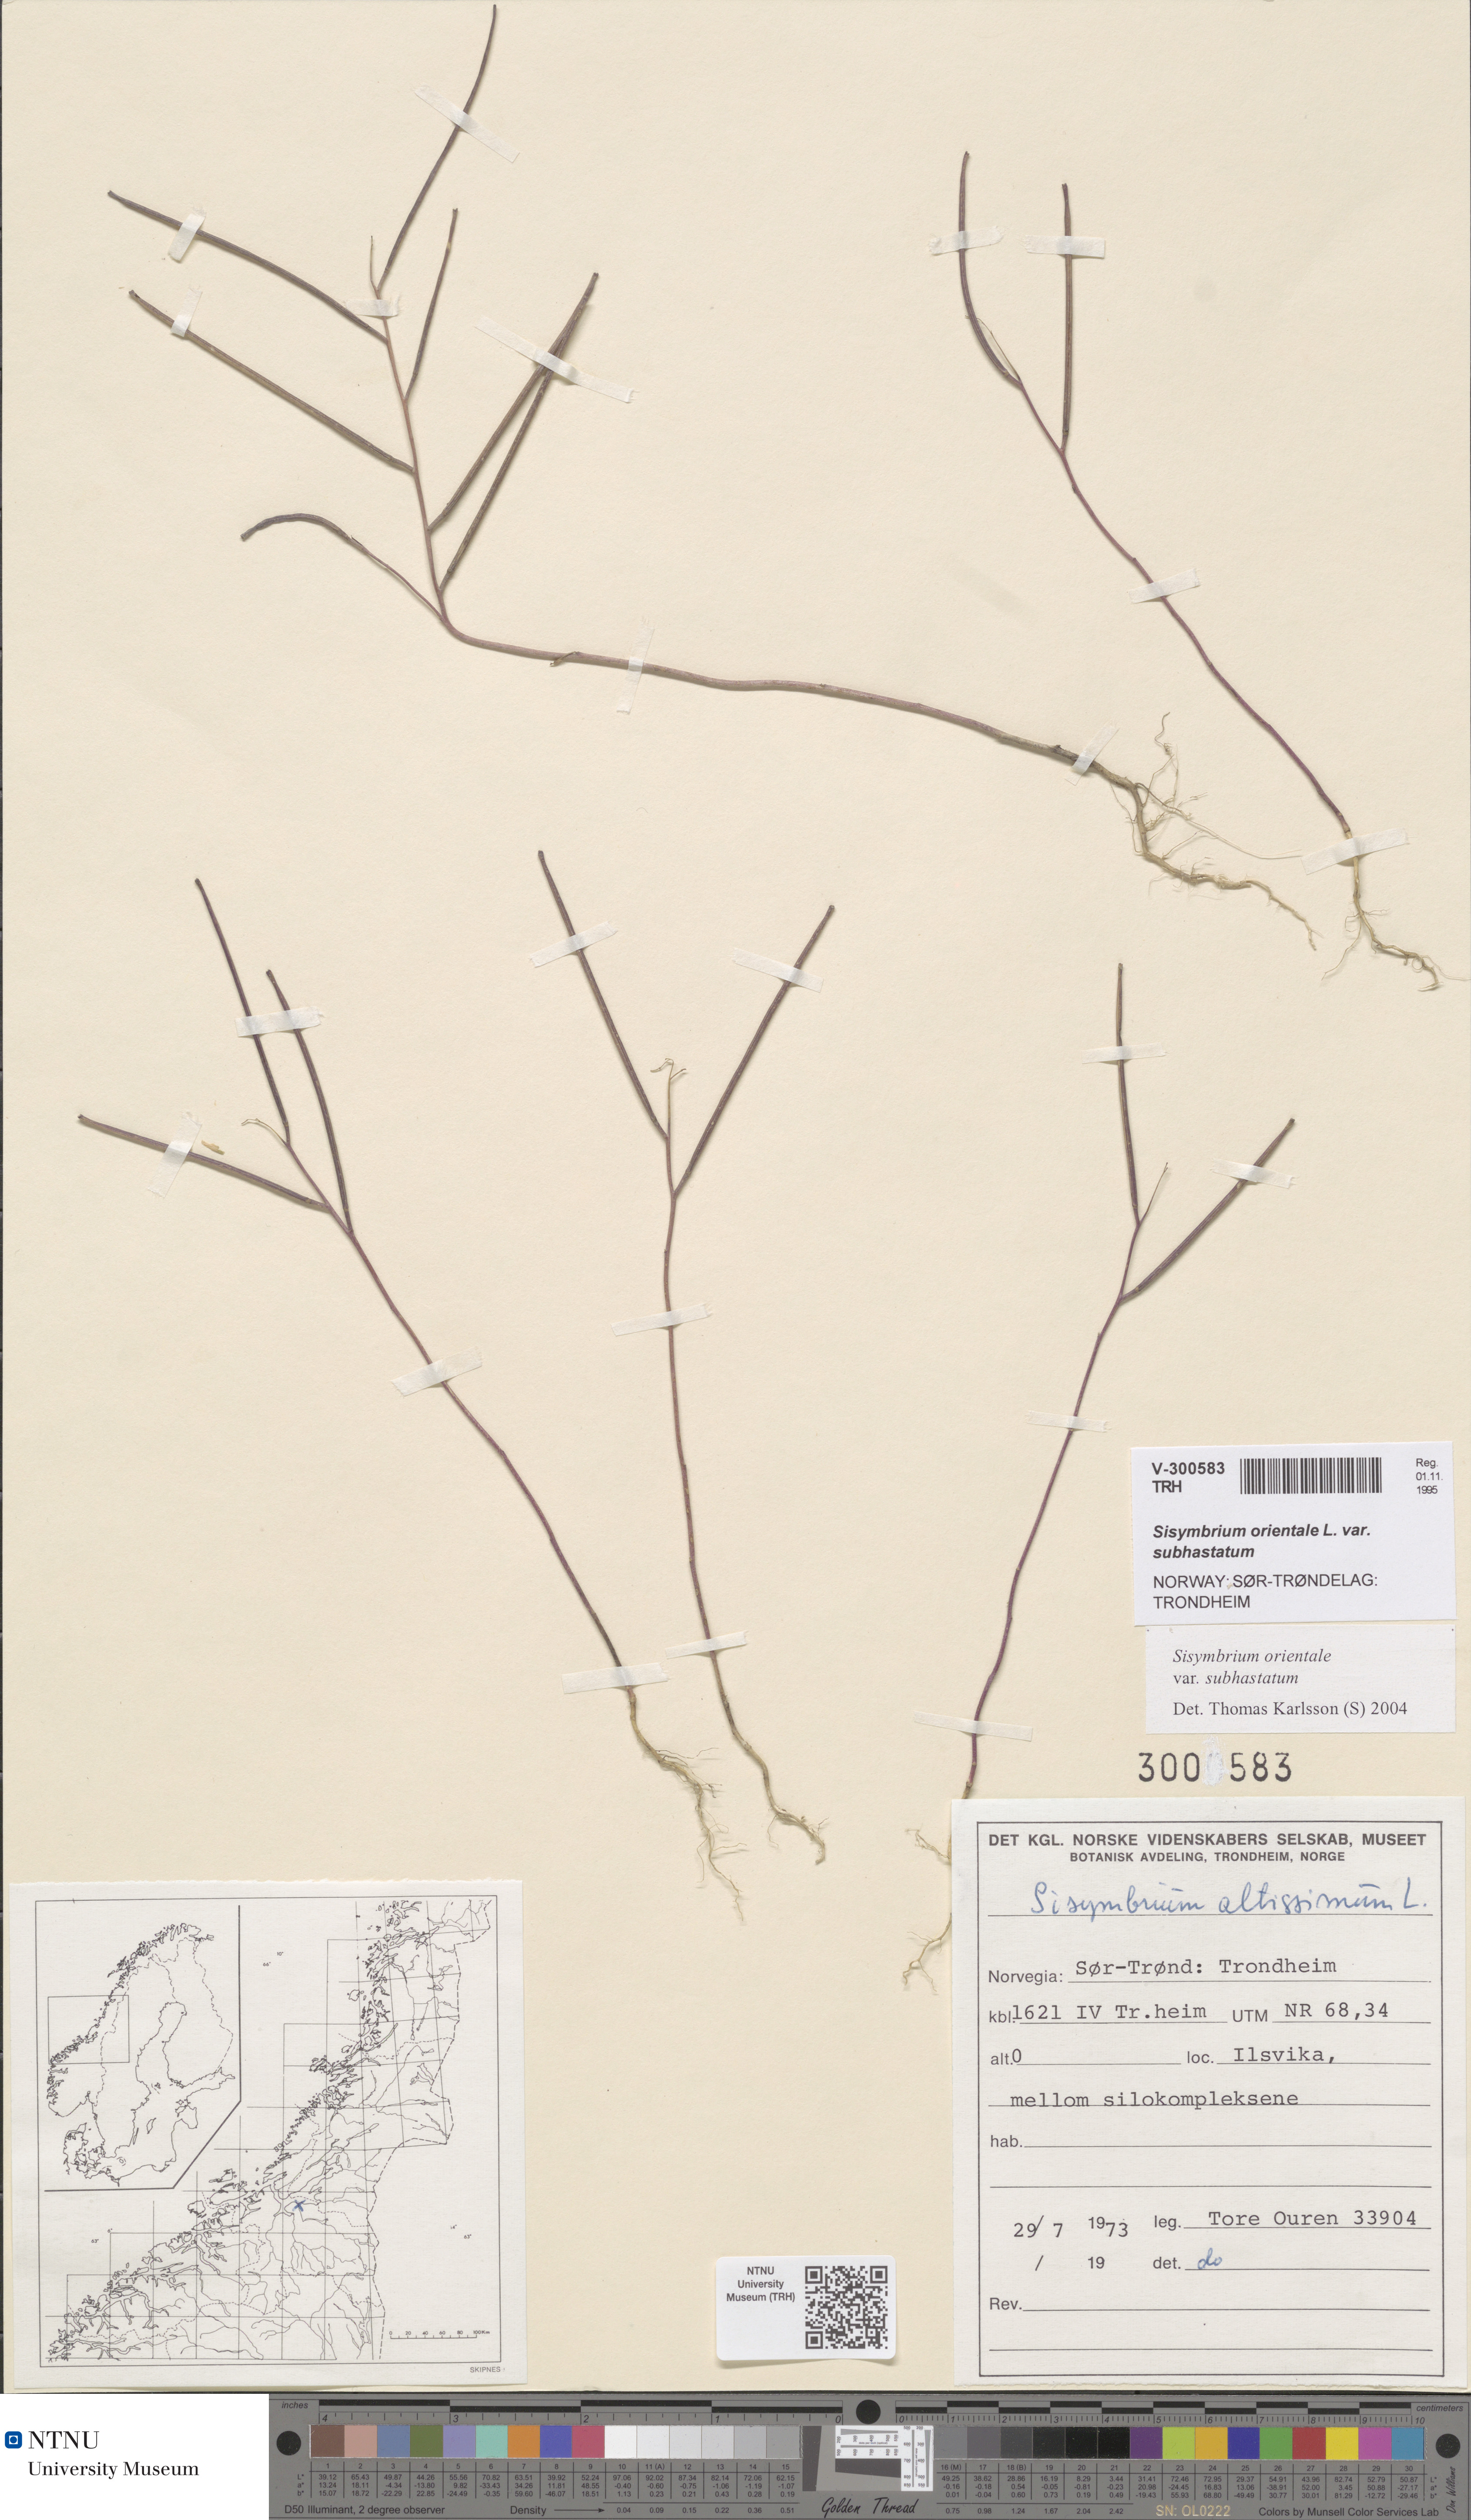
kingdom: Plantae
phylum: Tracheophyta
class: Magnoliopsida
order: Brassicales
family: Brassicaceae
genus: Sisymbrium
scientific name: Sisymbrium orientale
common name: Eastern rocket
